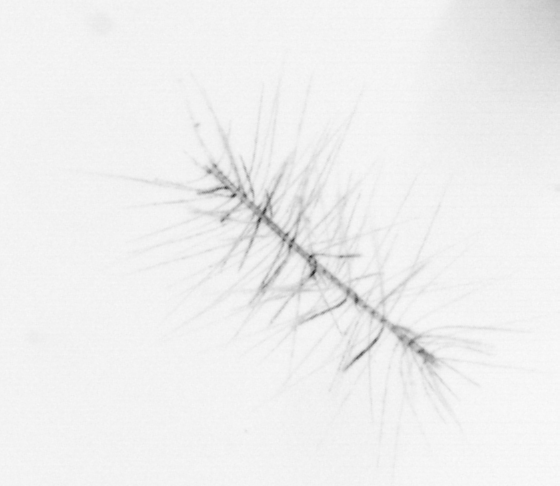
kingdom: Chromista
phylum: Ochrophyta
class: Bacillariophyceae
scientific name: Bacillariophyceae
